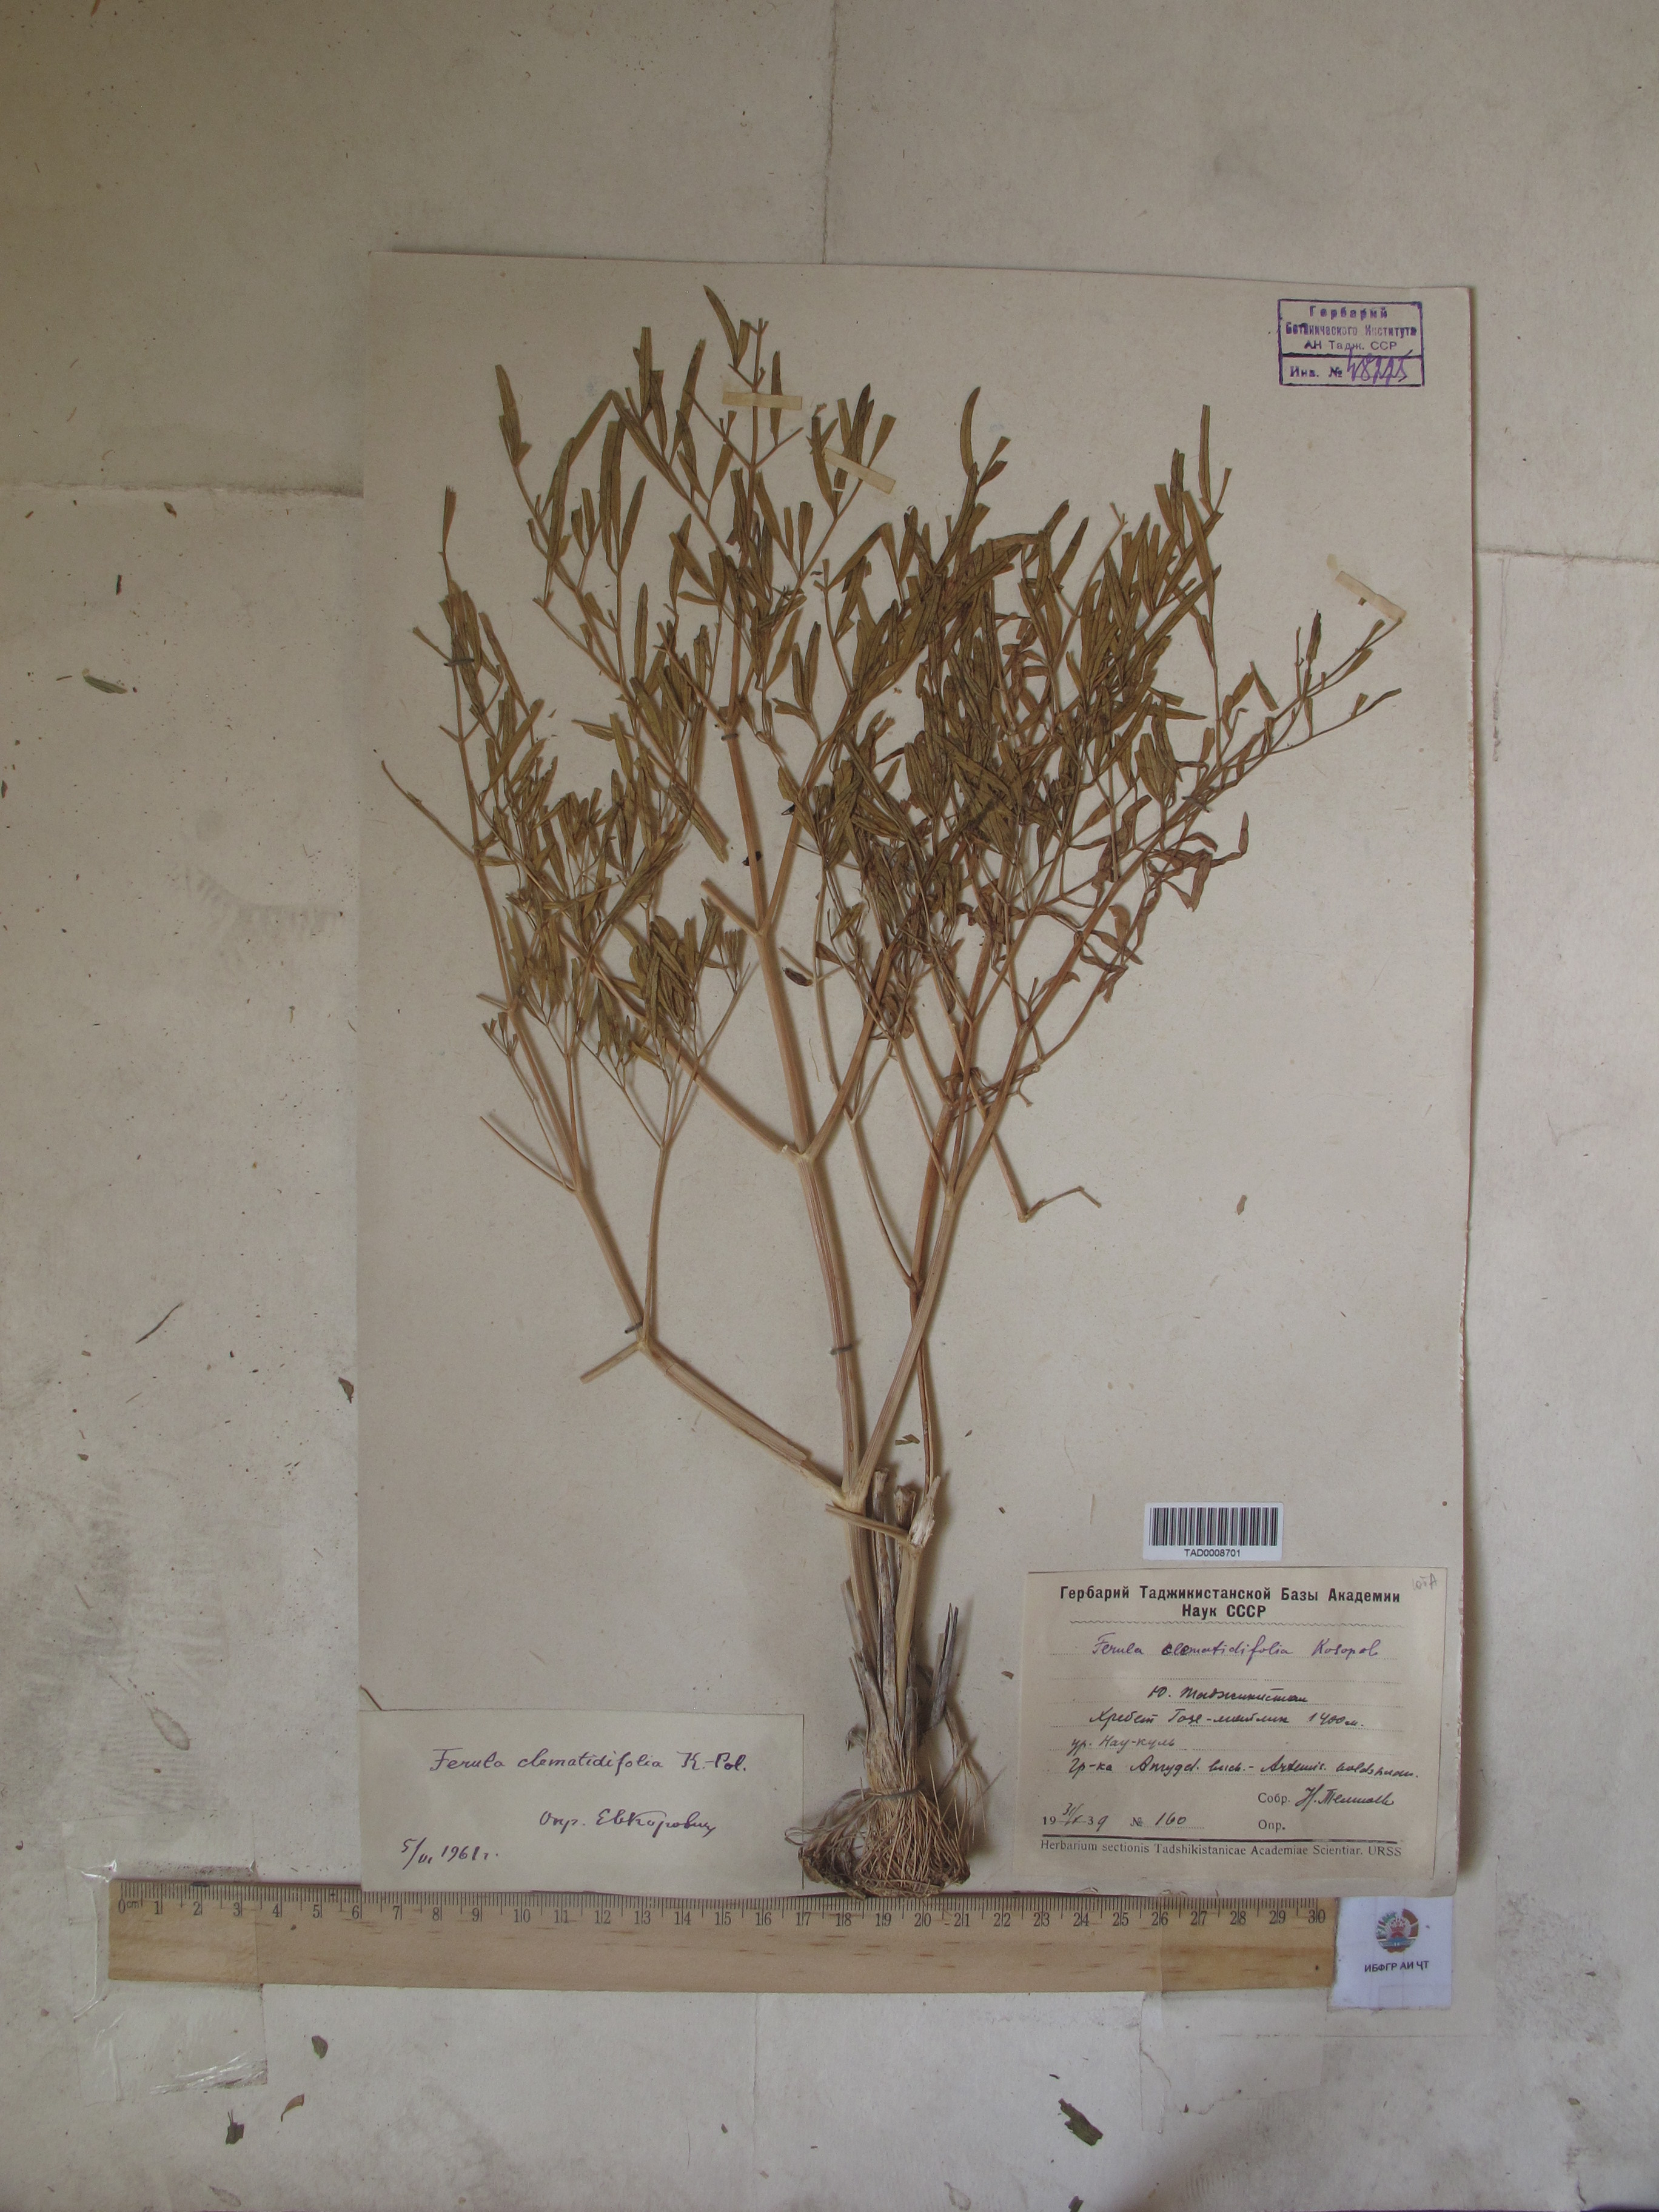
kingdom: Plantae
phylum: Tracheophyta
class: Magnoliopsida
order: Apiales
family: Apiaceae
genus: Ferula
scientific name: Ferula clematidifolia
